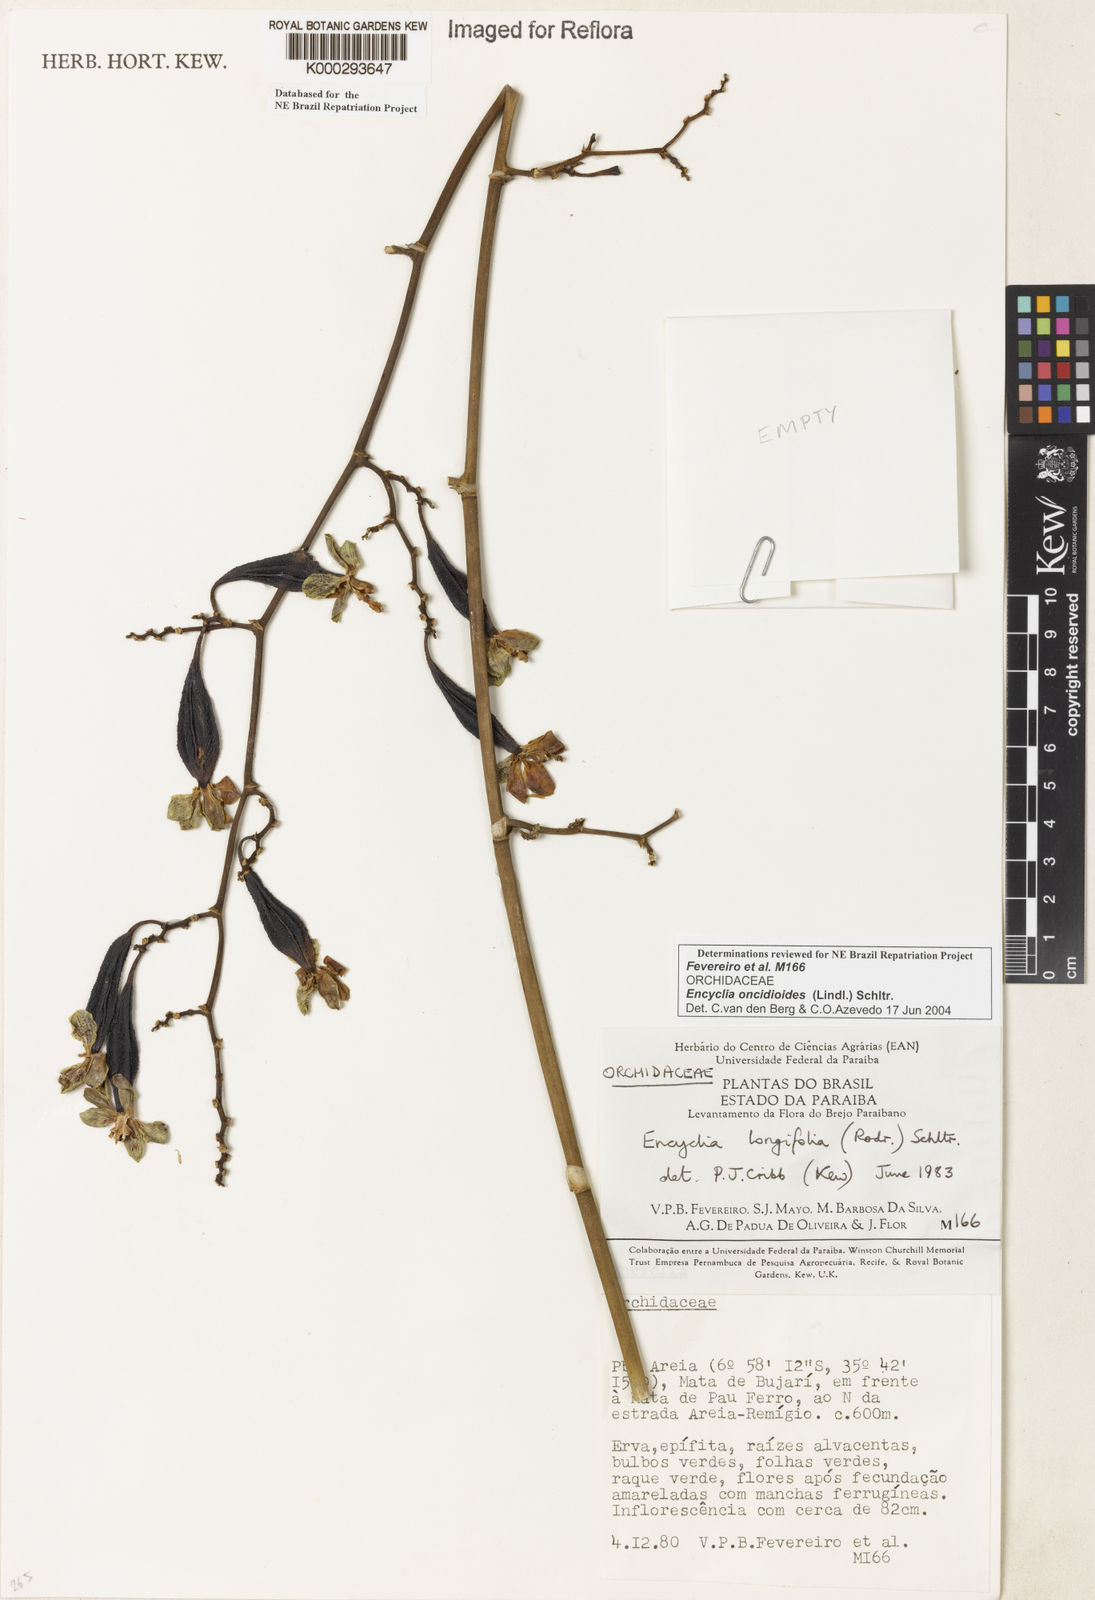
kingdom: Plantae
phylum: Tracheophyta
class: Liliopsida
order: Asparagales
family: Orchidaceae
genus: Encyclia
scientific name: Encyclia oncidioides
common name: Heavyfruit butterfly orchid
